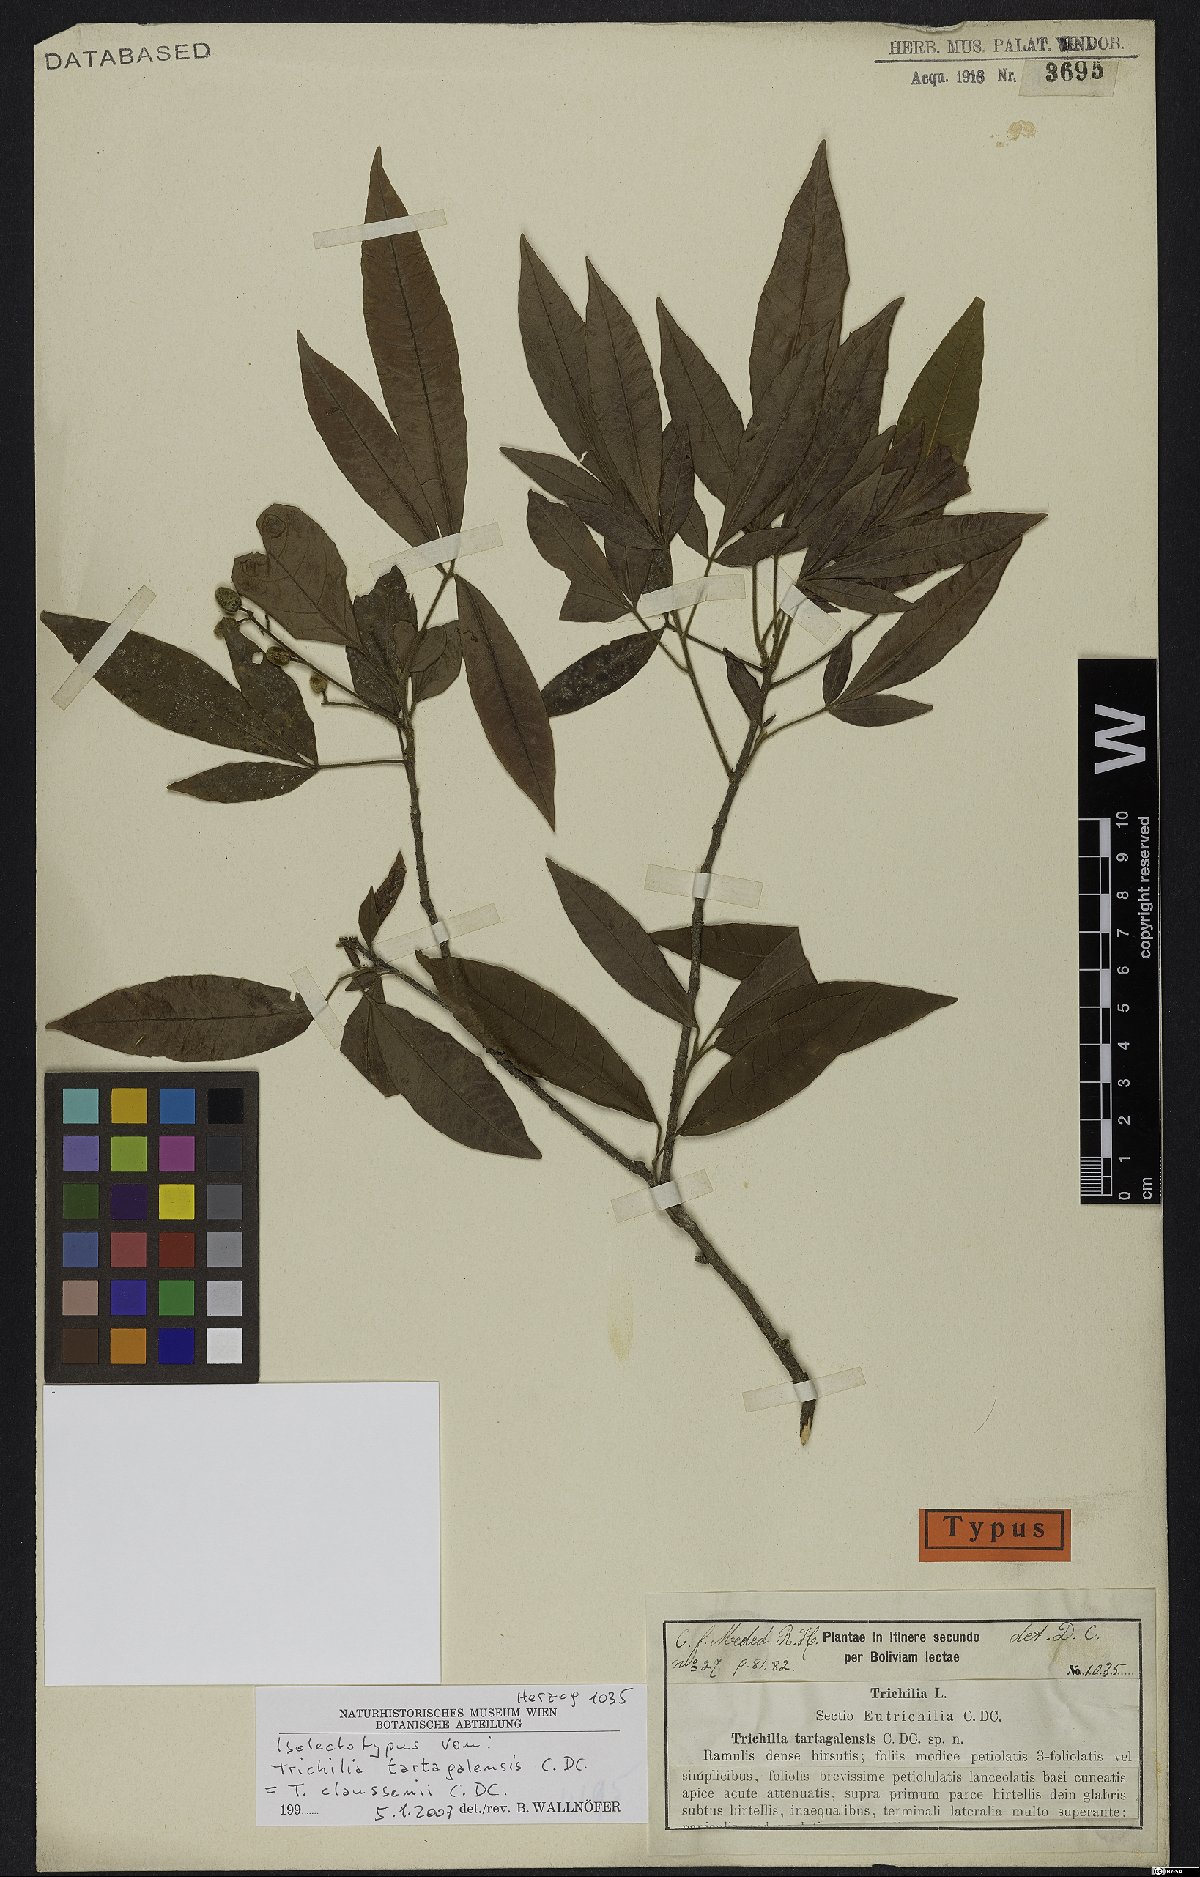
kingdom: Plantae
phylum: Tracheophyta
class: Magnoliopsida
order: Sapindales
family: Meliaceae
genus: Trichilia
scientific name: Trichilia claussenii
